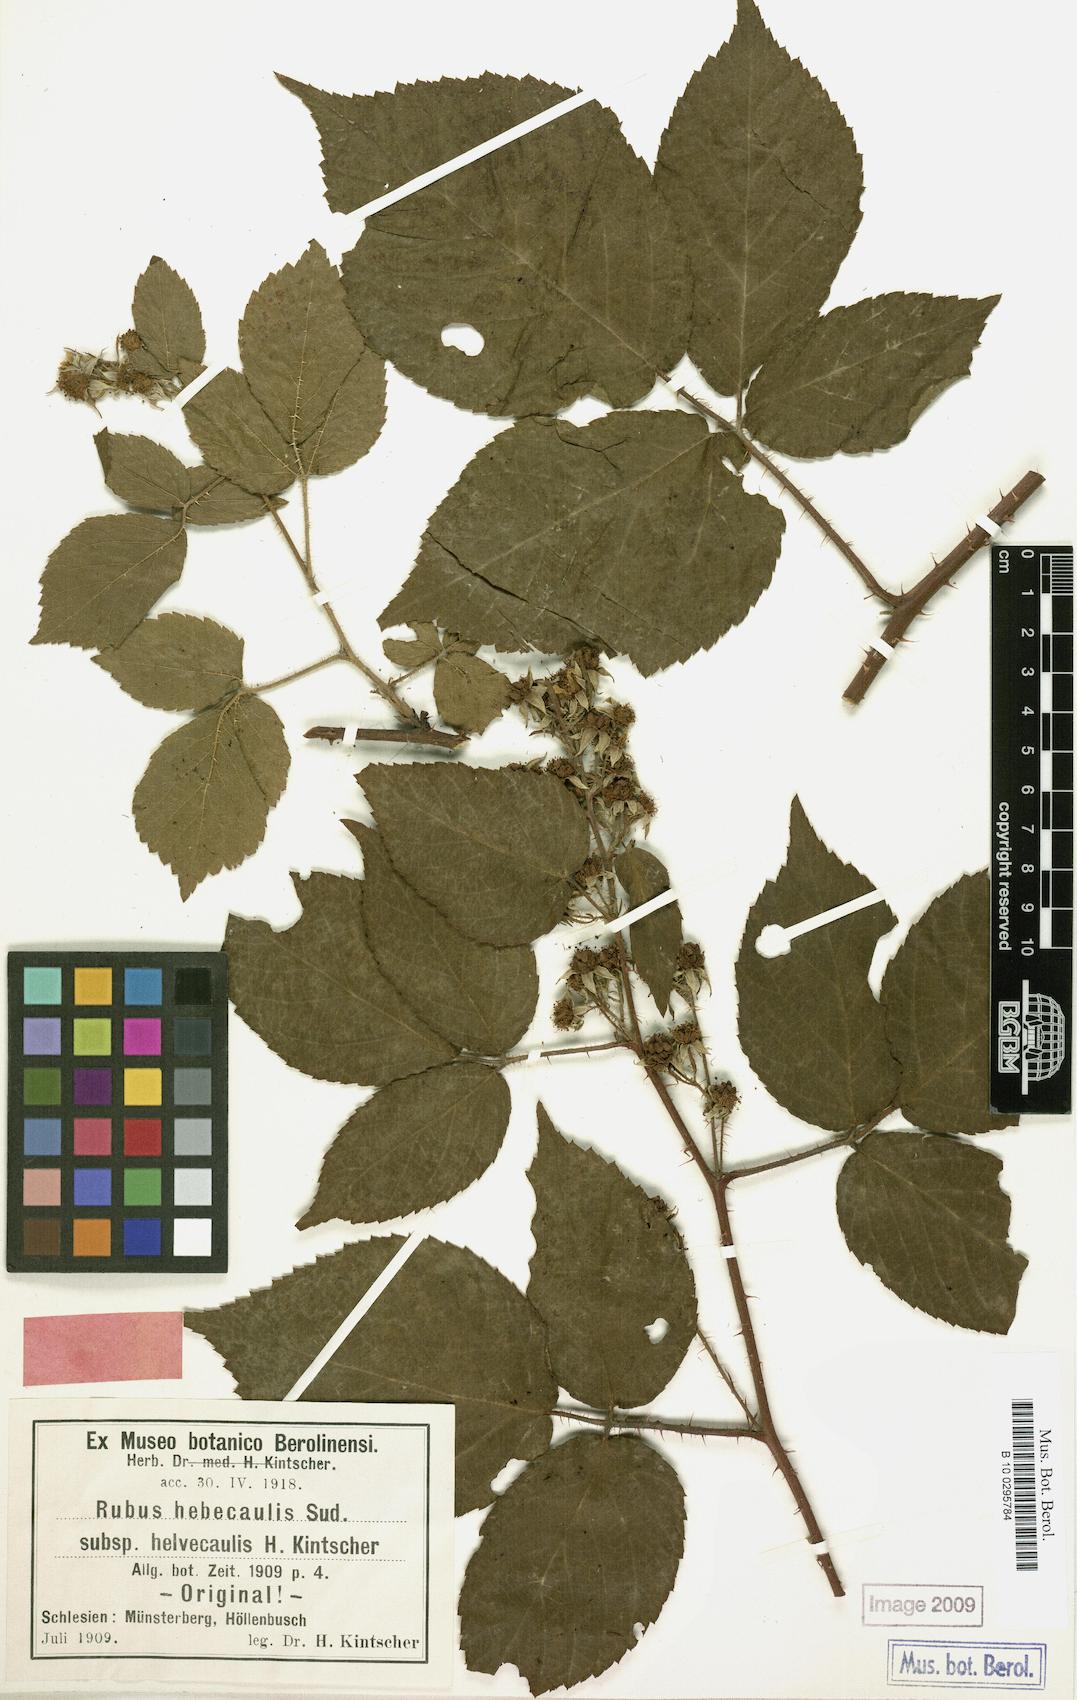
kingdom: Plantae
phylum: Tracheophyta
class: Magnoliopsida
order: Rosales
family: Rosaceae
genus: Rubus
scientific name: Rubus hebecaulis
